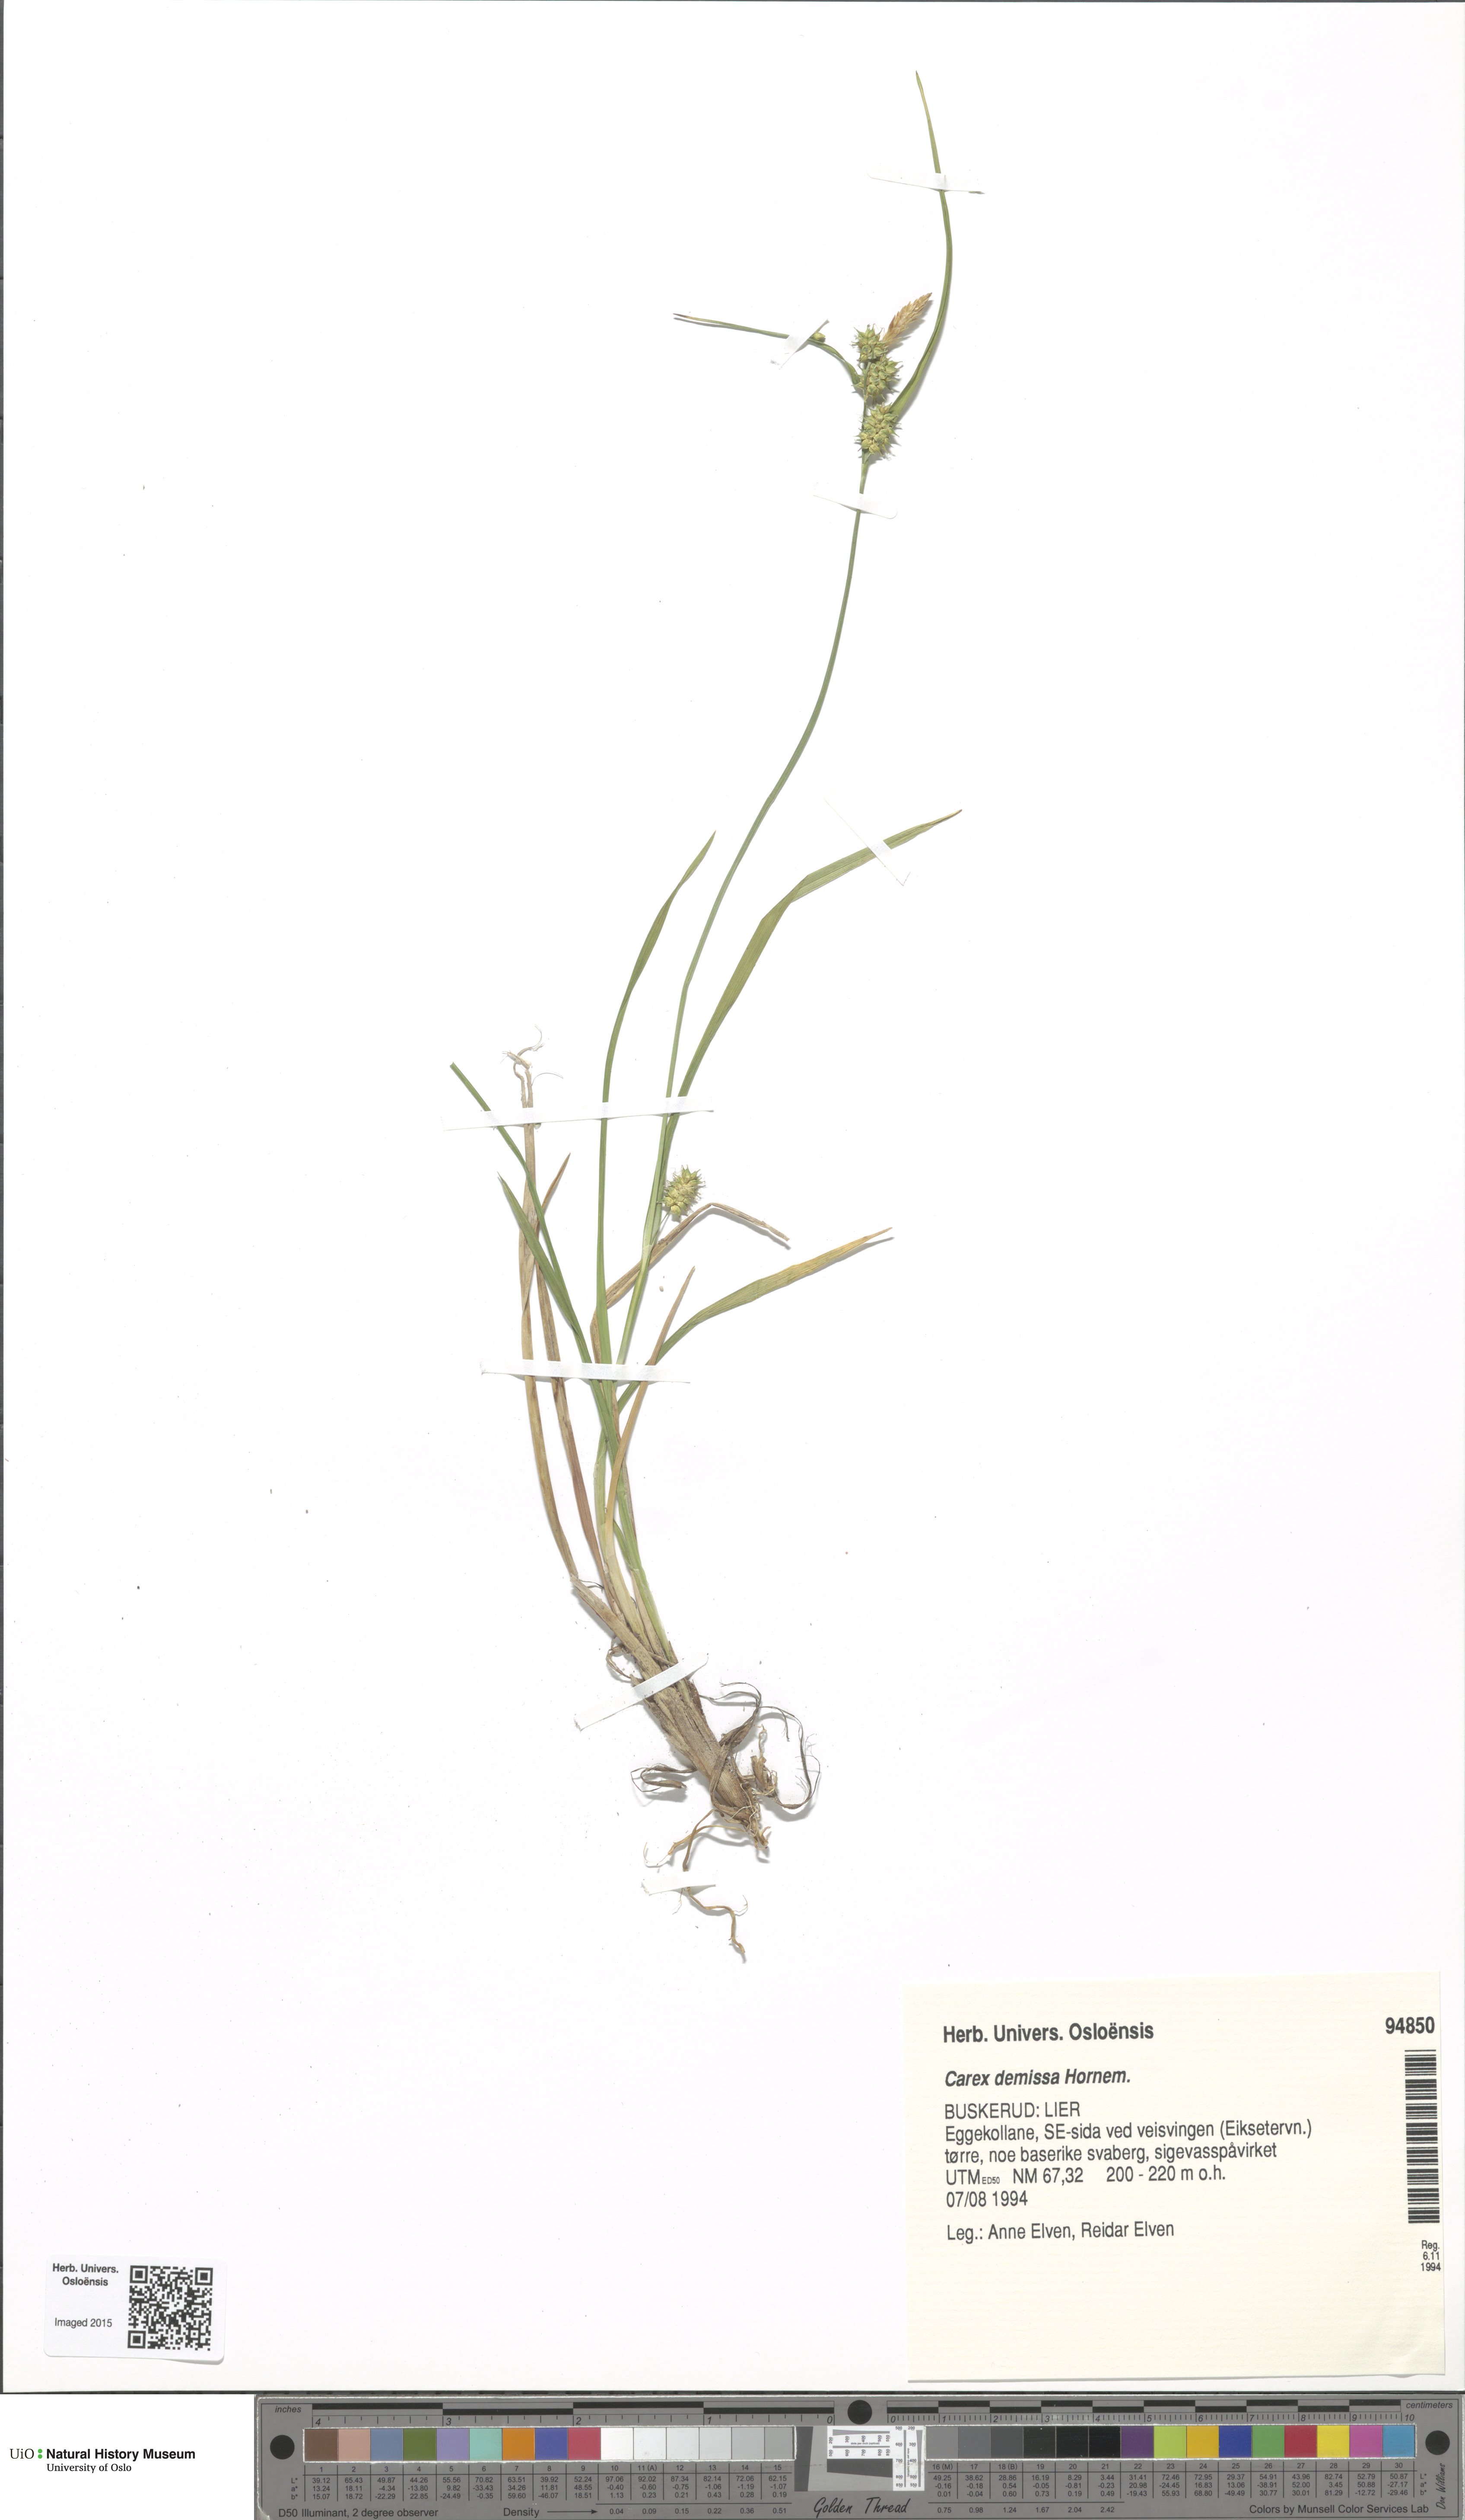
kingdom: Plantae
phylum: Tracheophyta
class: Liliopsida
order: Poales
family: Cyperaceae
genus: Carex
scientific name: Carex demissa
